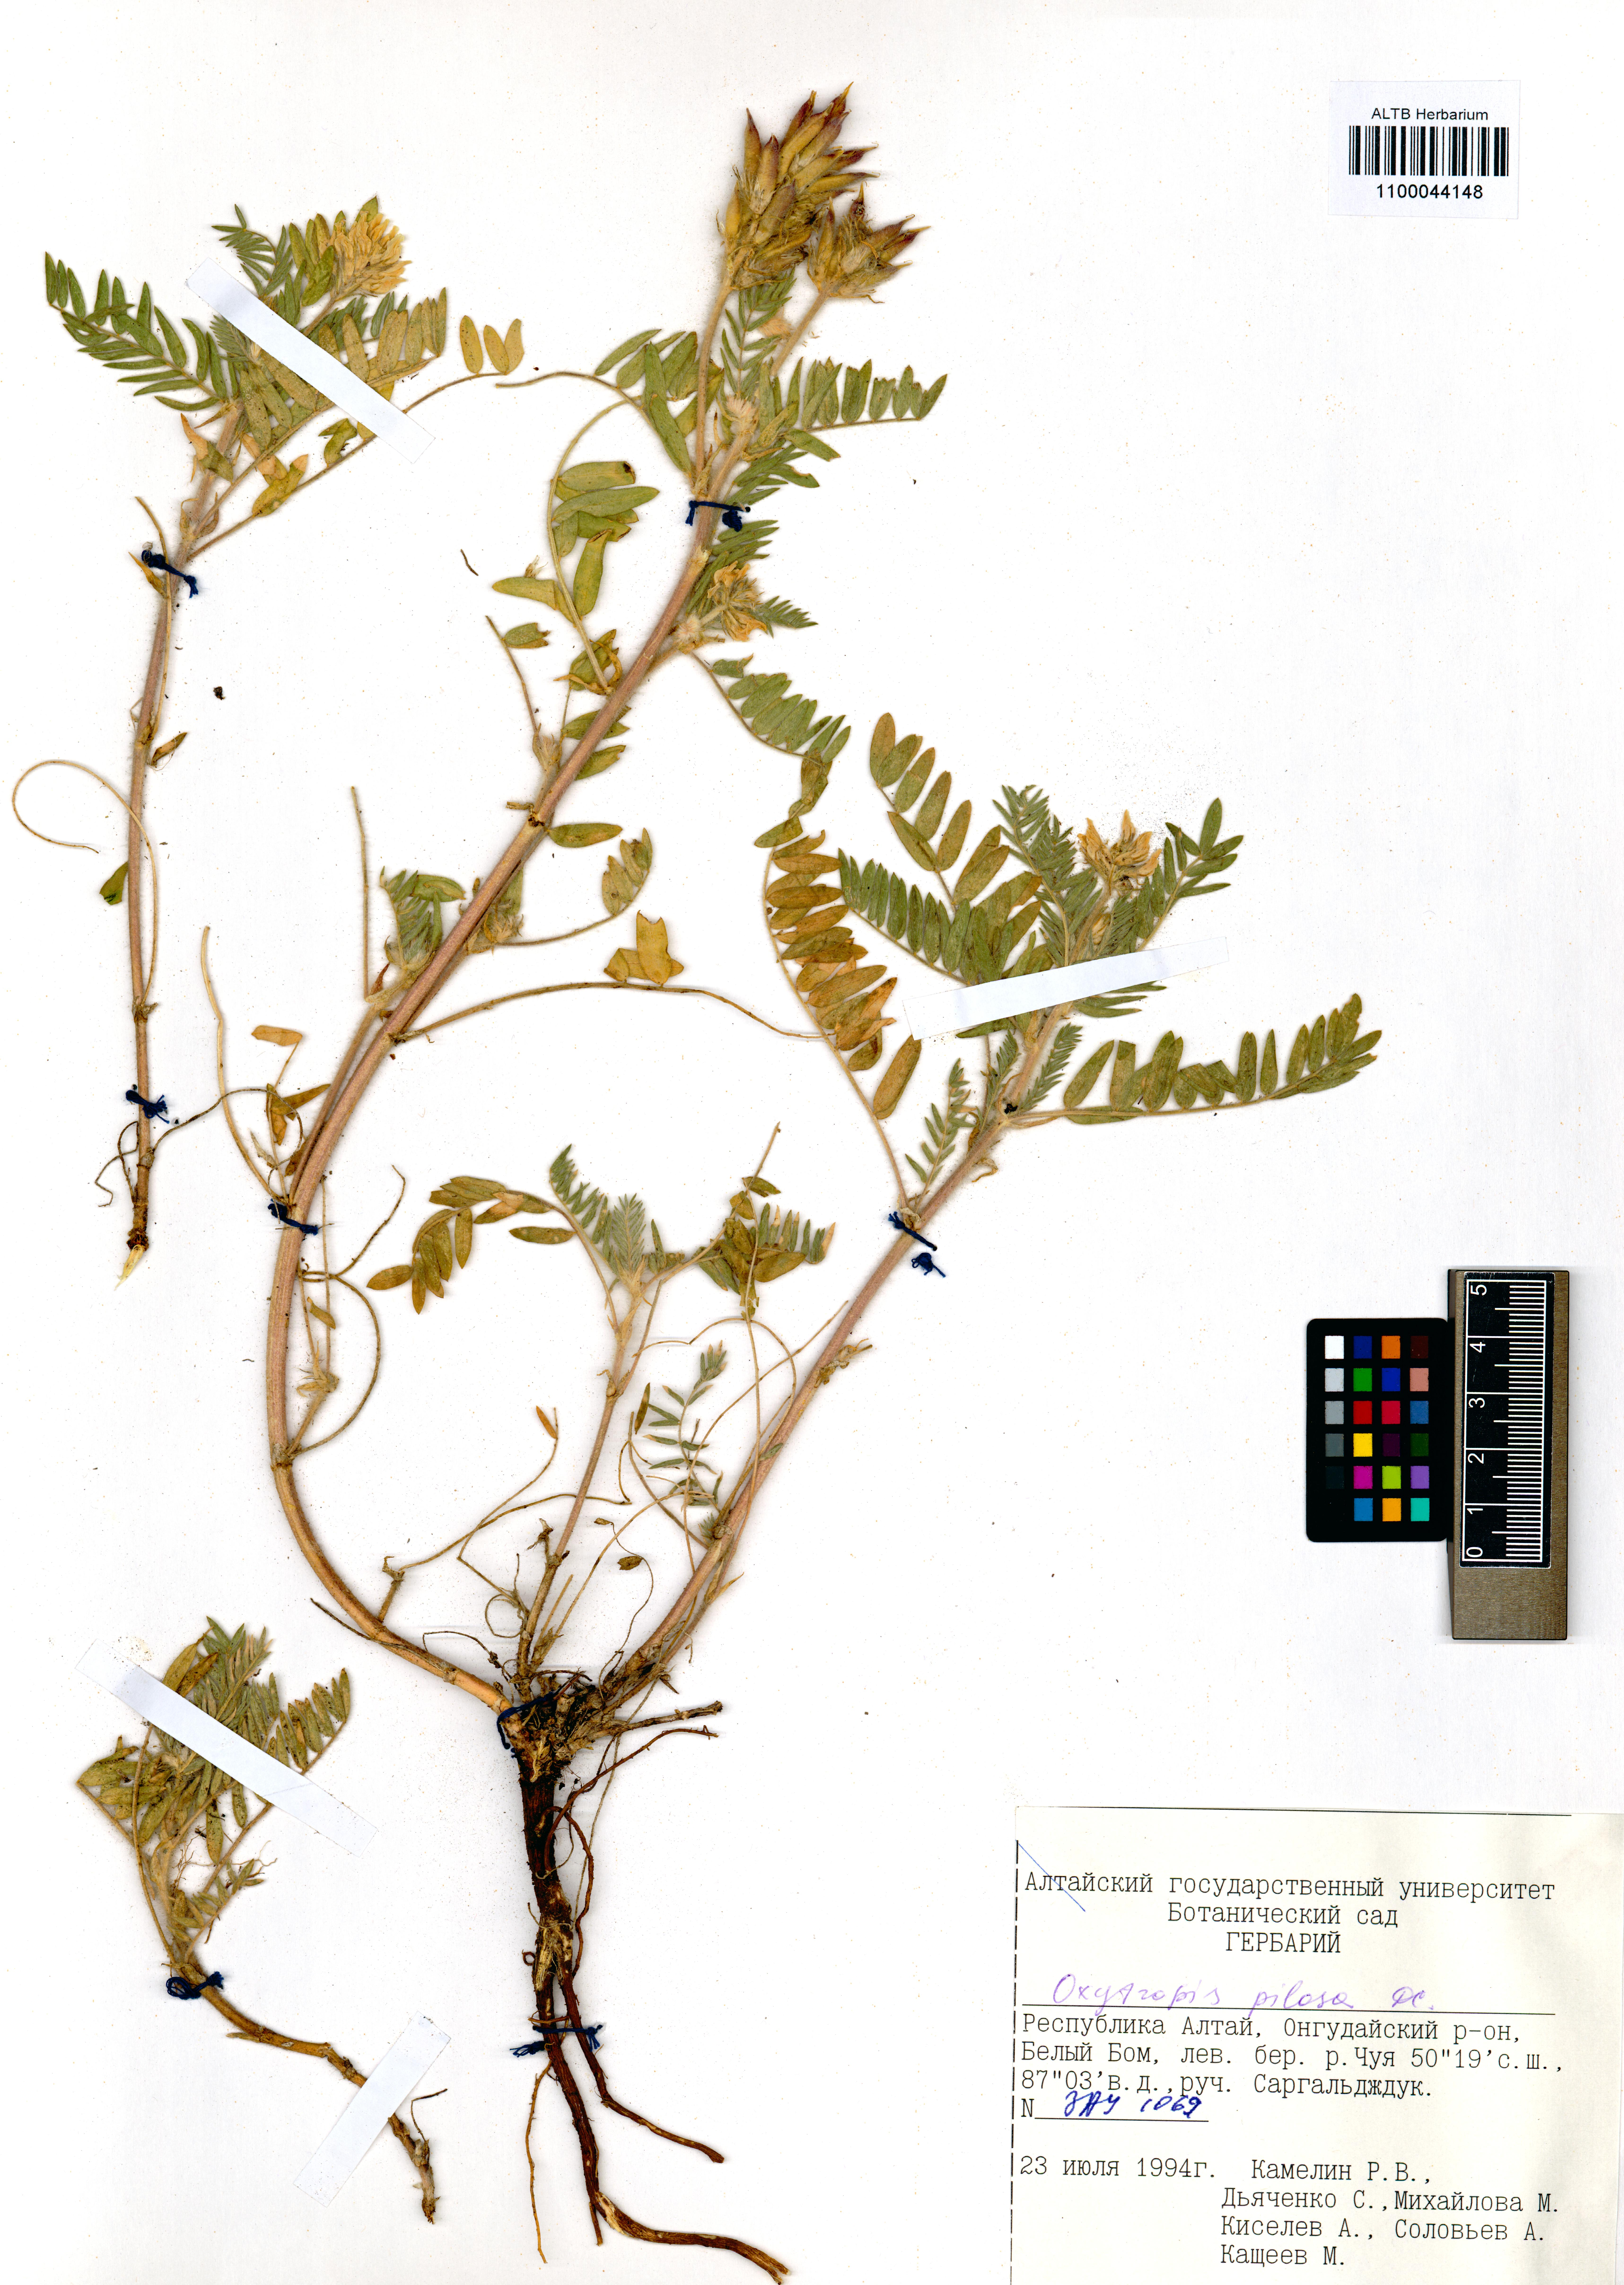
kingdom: Plantae
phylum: Tracheophyta
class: Magnoliopsida
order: Fabales
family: Fabaceae
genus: Oxytropis
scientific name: Oxytropis pilosa
